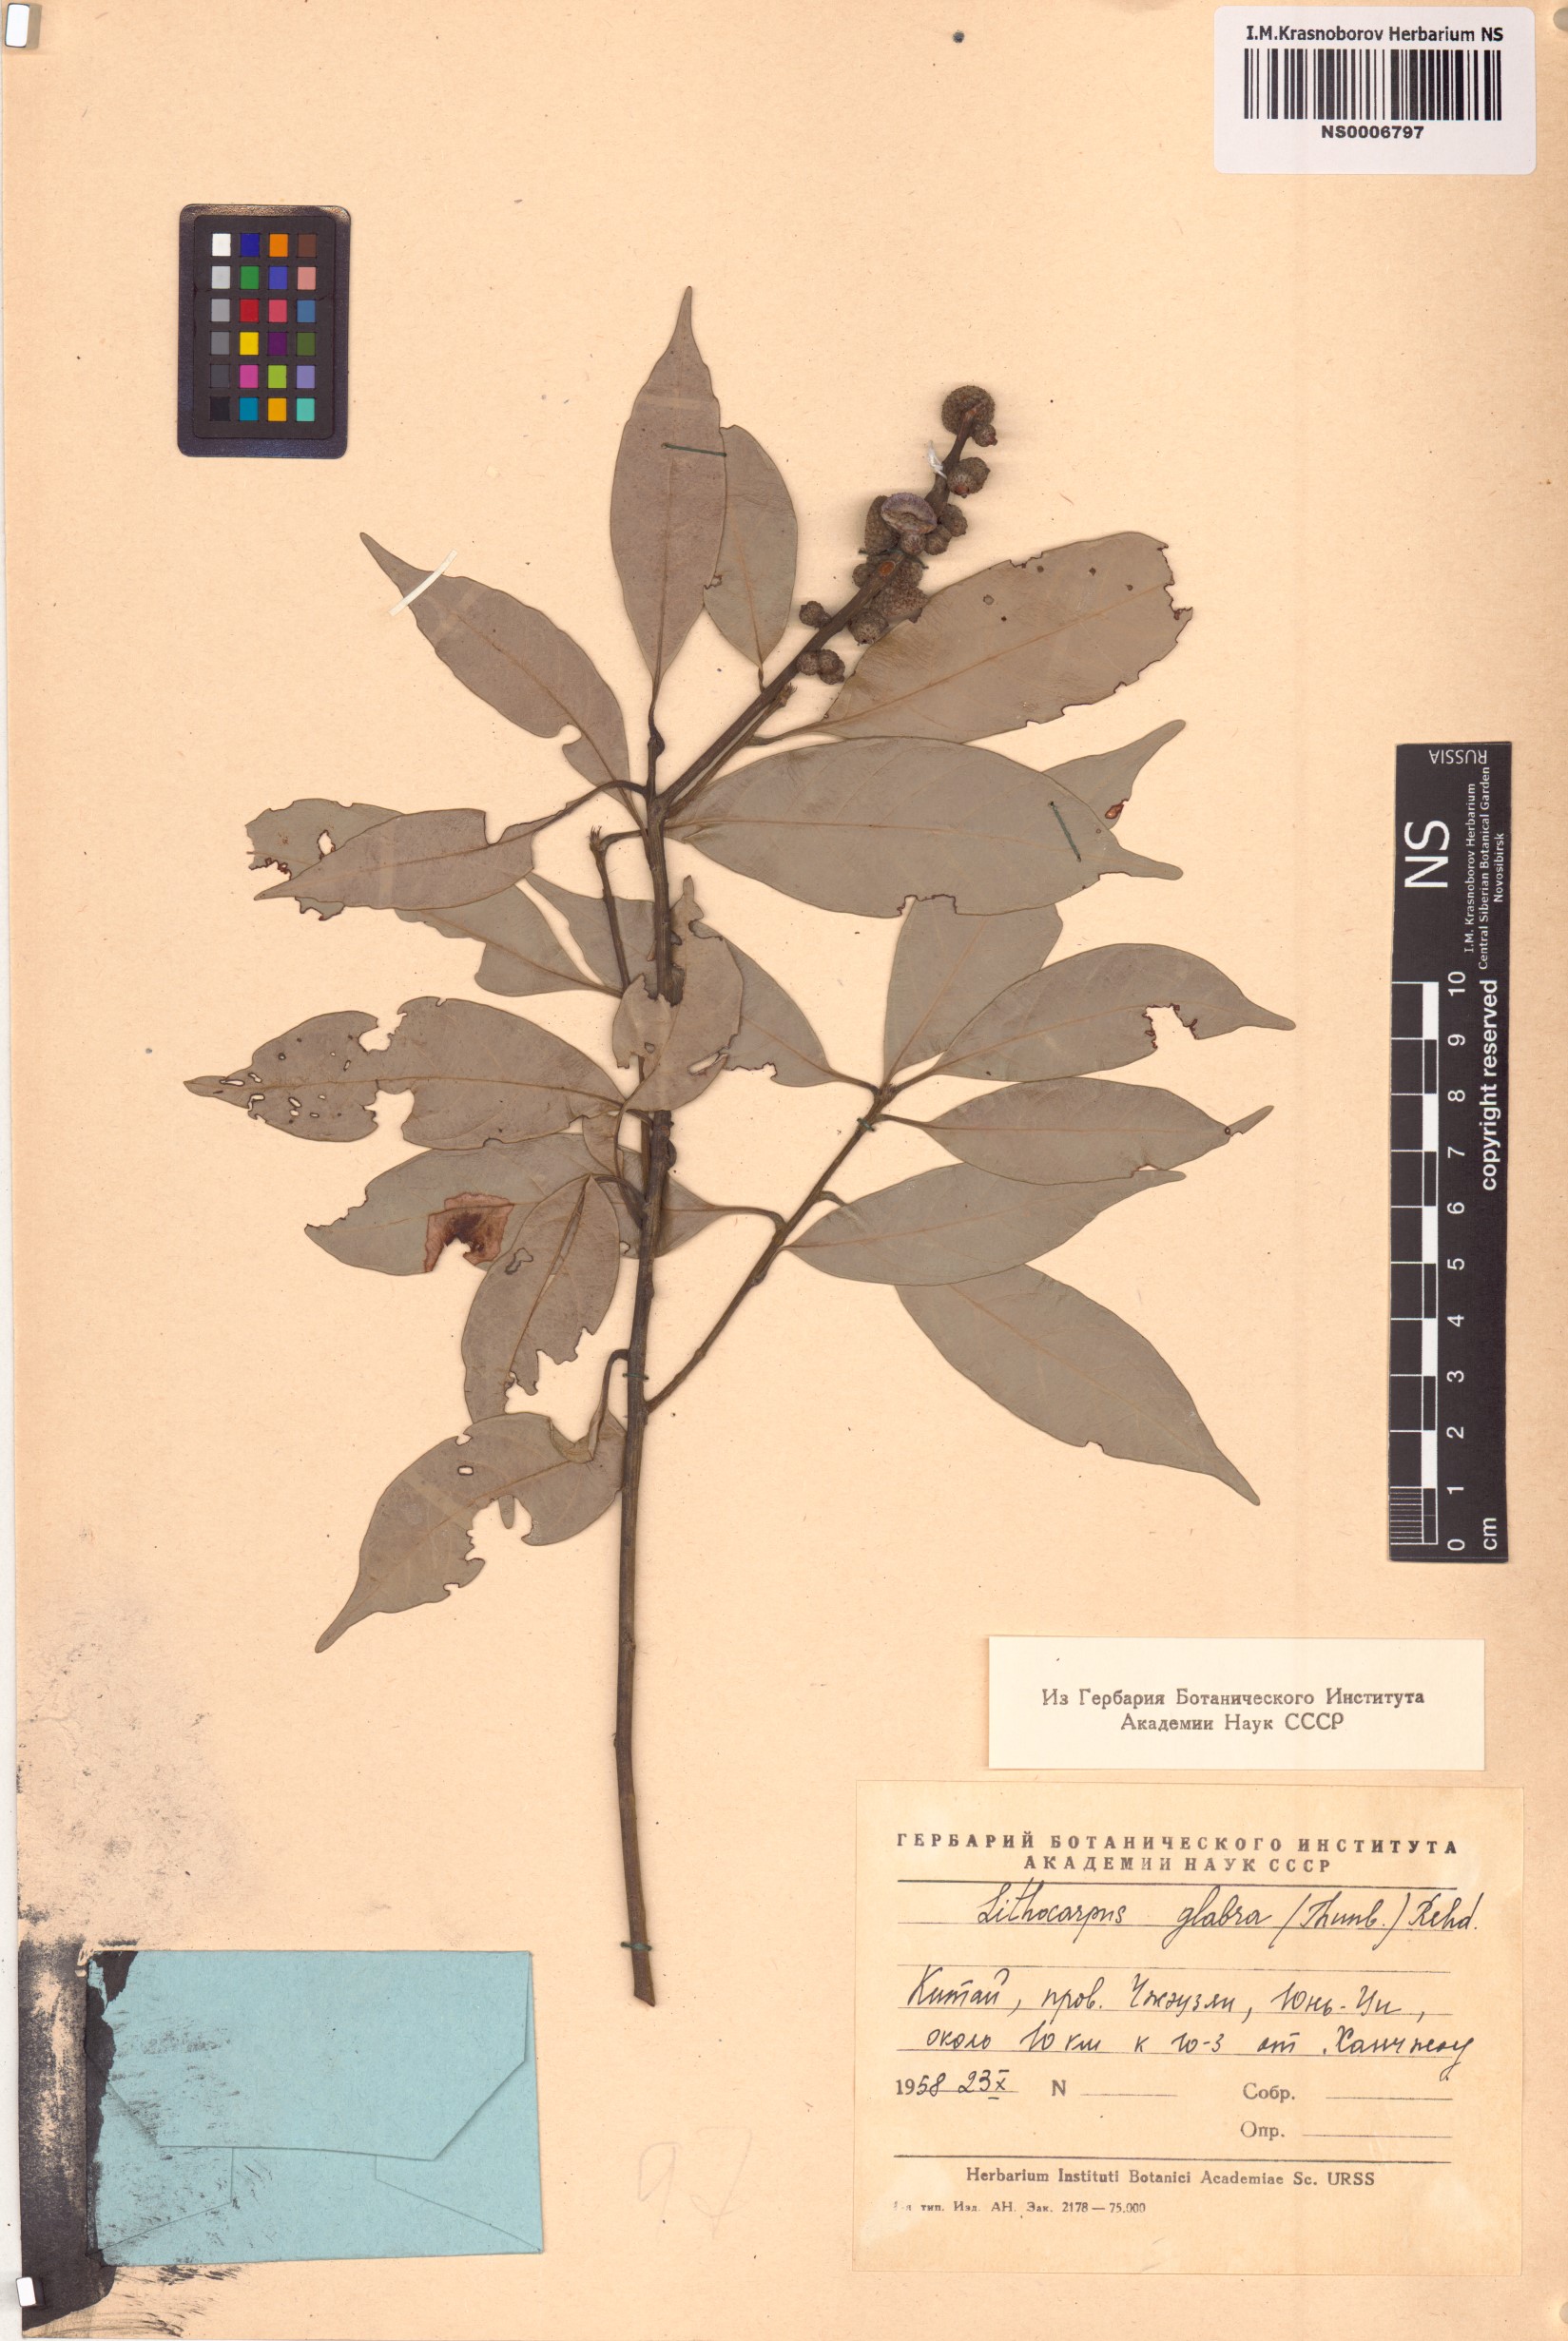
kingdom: Plantae
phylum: Tracheophyta
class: Magnoliopsida
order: Fagales
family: Fagaceae
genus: Lithocarpus
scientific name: Lithocarpus glaber
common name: Japanese-oak
